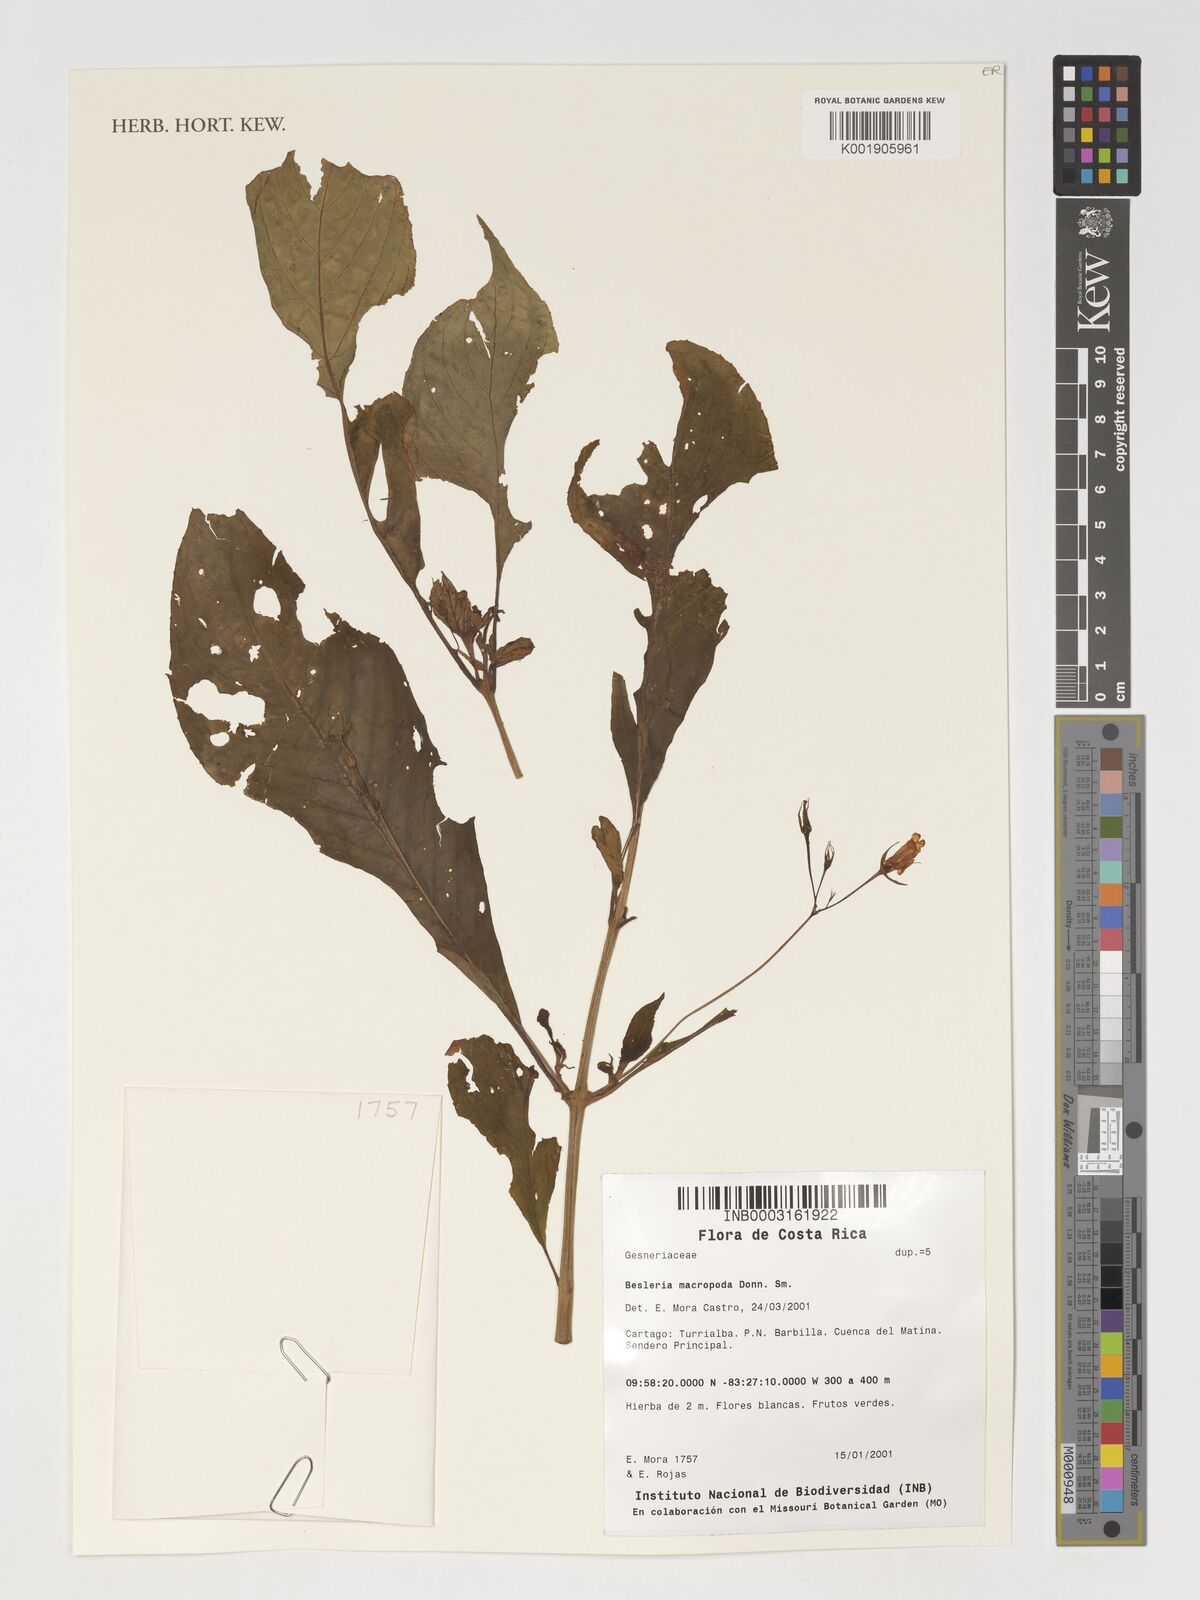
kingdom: Plantae
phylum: Tracheophyta
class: Magnoliopsida
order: Lamiales
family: Gesneriaceae
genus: Besleria
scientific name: Besleria macropoda
